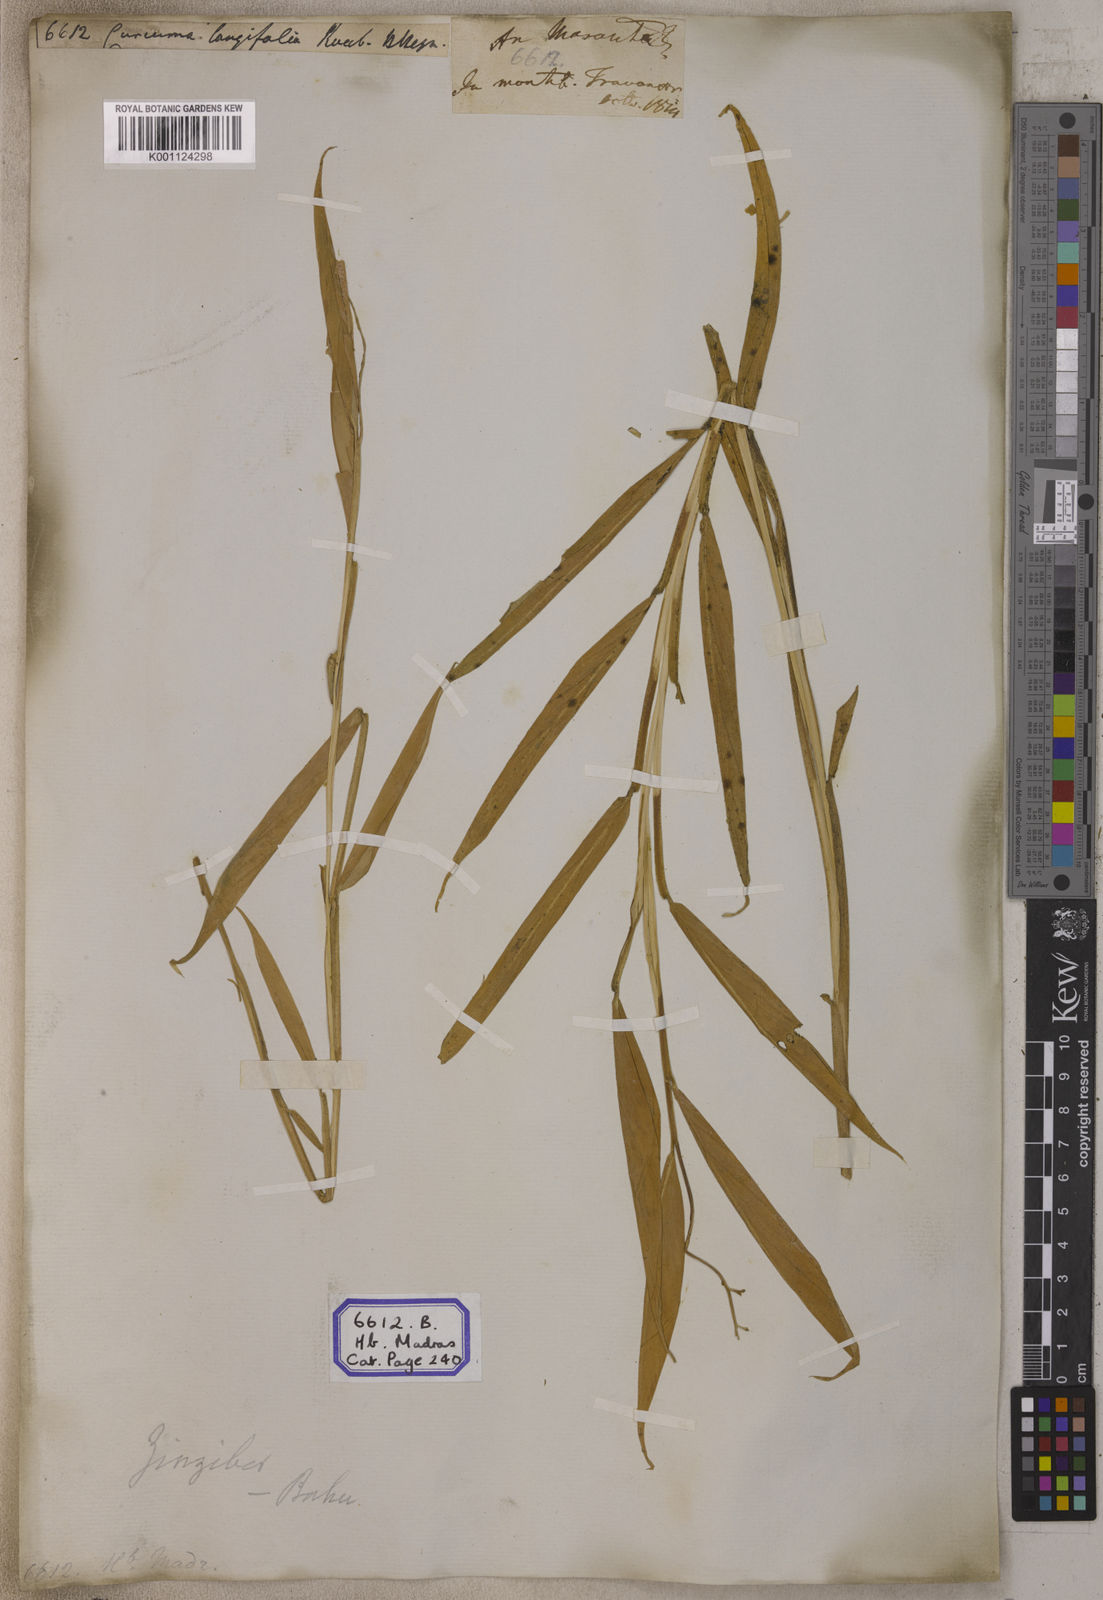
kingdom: Plantae
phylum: Tracheophyta
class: Liliopsida
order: Zingiberales
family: Zingiberaceae
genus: Curcuma
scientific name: Curcuma
